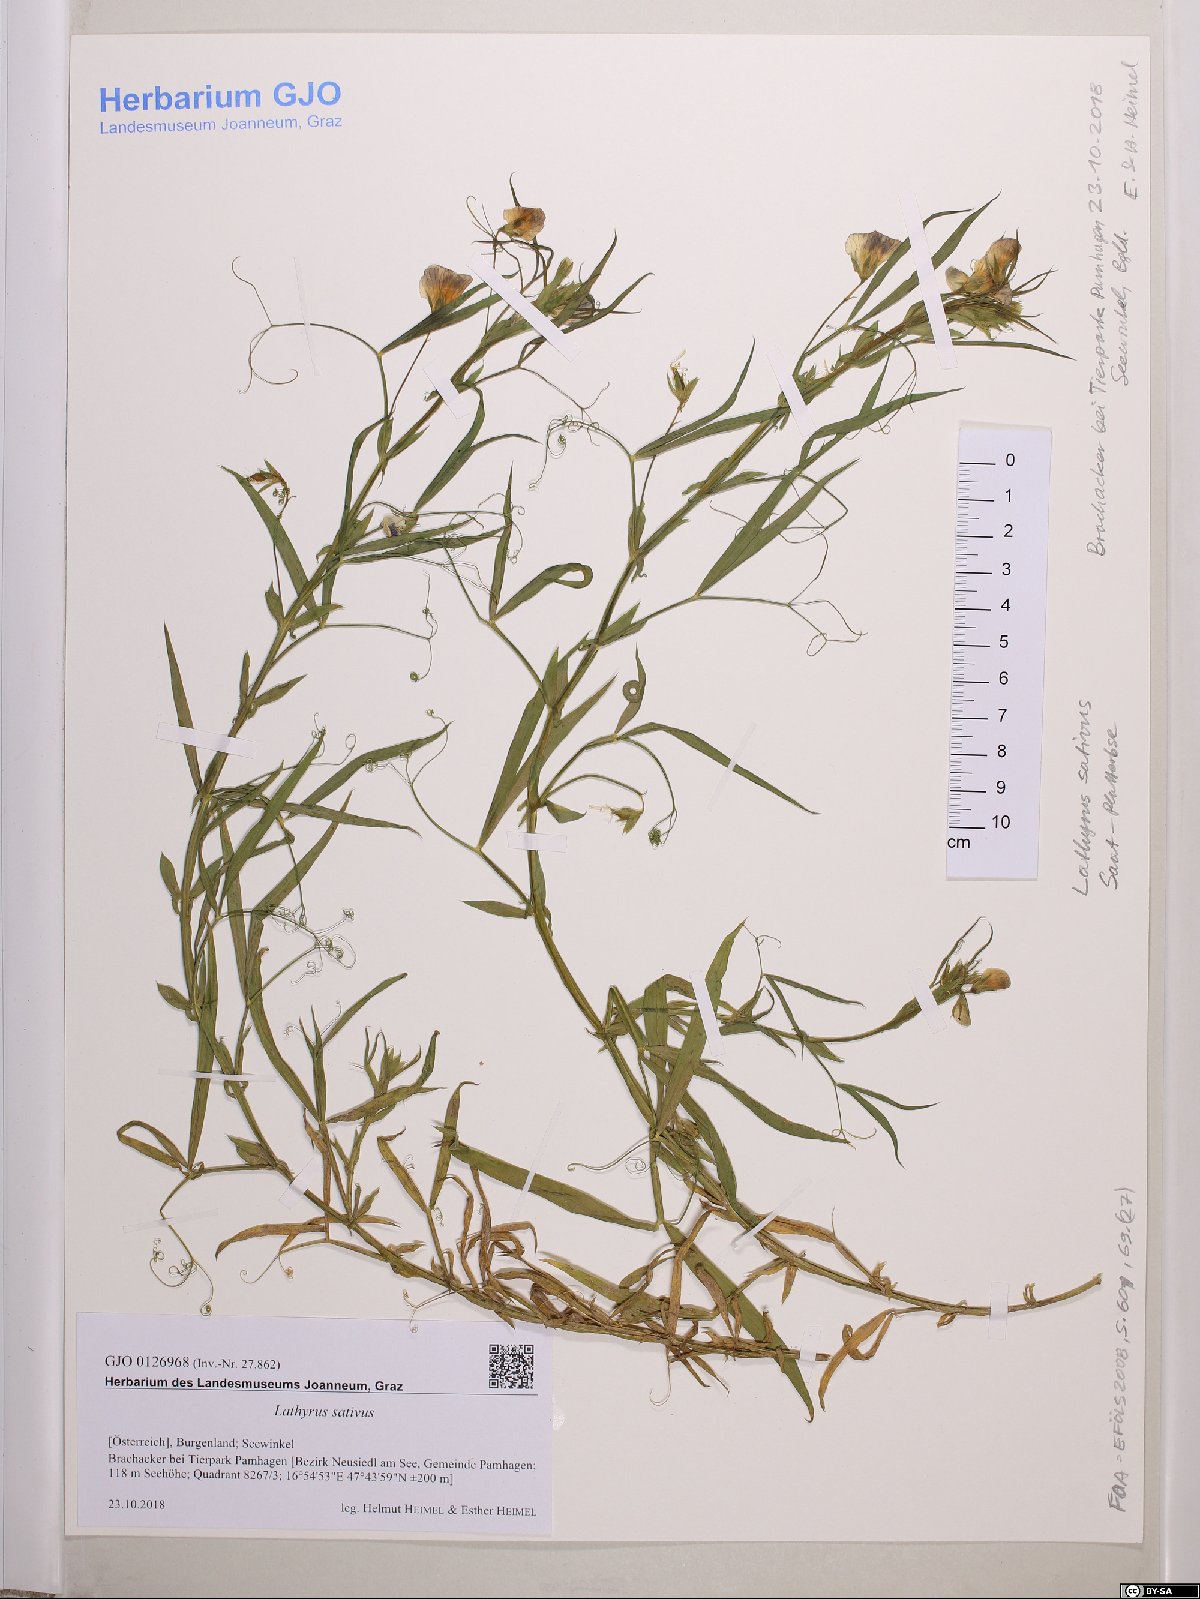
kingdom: Plantae
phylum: Tracheophyta
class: Magnoliopsida
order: Fabales
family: Fabaceae
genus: Lathyrus
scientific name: Lathyrus sativus
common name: Indian pea
